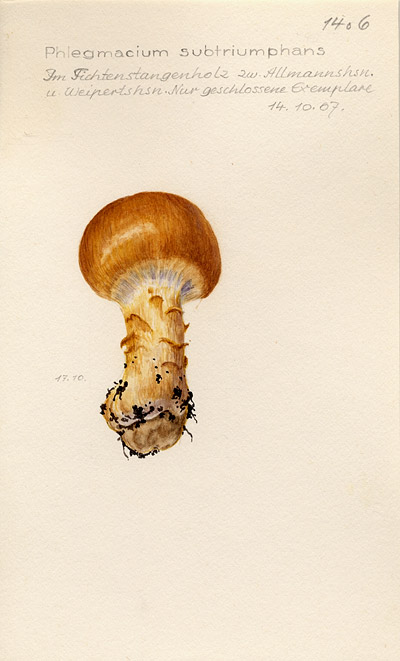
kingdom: Fungi
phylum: Basidiomycota
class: Agaricomycetes
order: Agaricales
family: Cortinariaceae
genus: Phlegmacium
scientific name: Phlegmacium saginum
